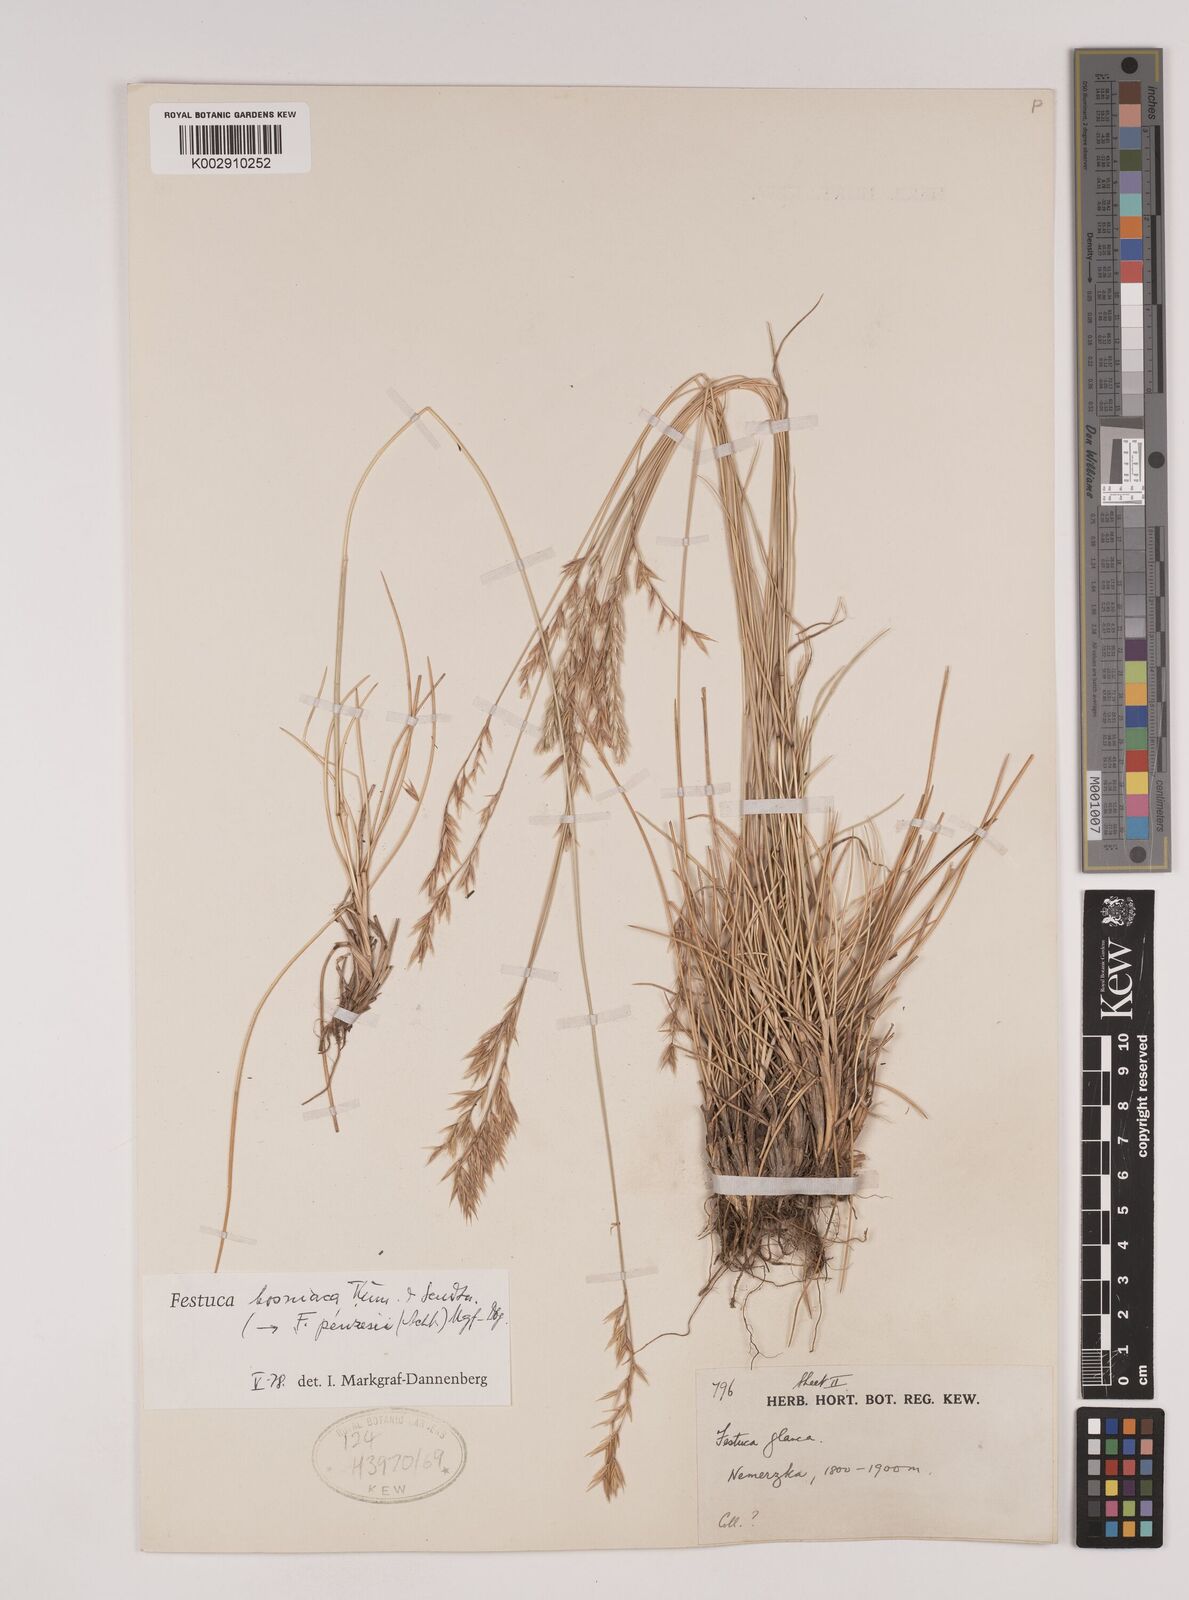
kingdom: Plantae
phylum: Tracheophyta
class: Liliopsida
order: Poales
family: Poaceae
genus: Festuca
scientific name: Festuca bosniaca
